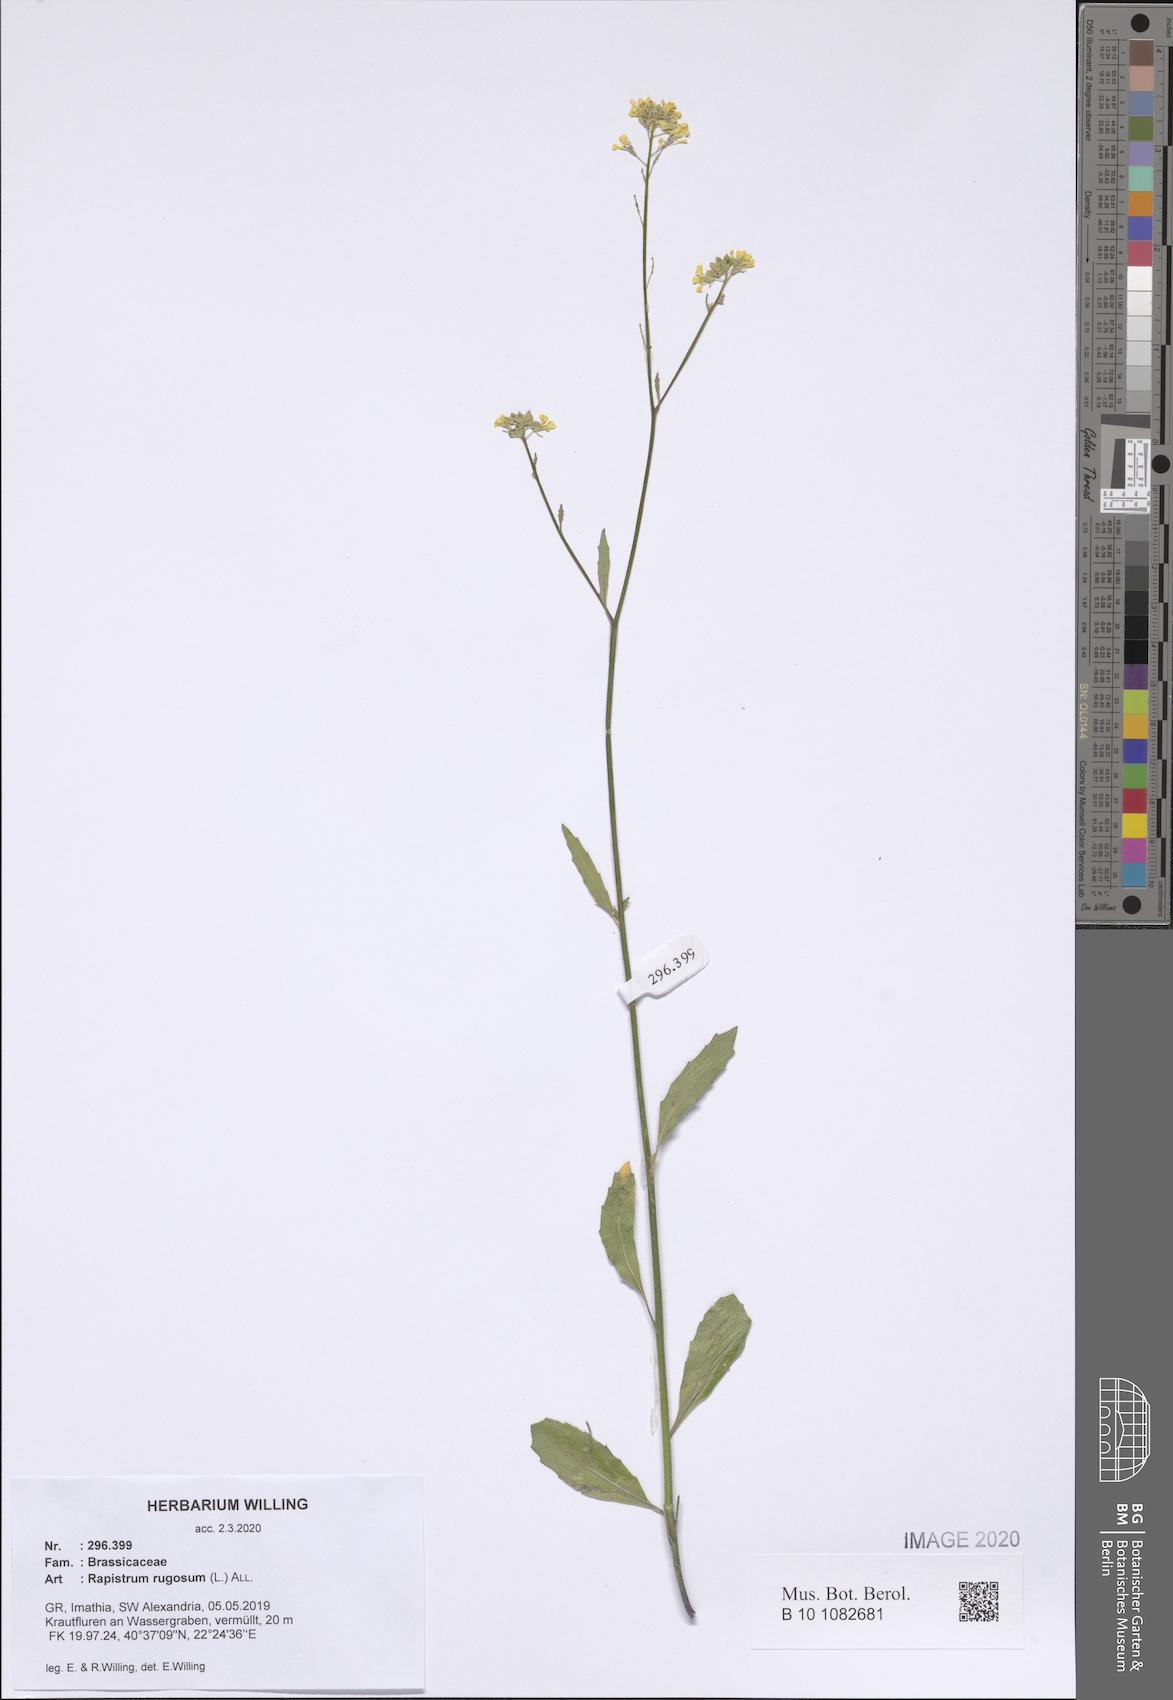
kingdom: Plantae
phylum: Tracheophyta
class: Magnoliopsida
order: Brassicales
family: Brassicaceae
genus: Rapistrum
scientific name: Rapistrum rugosum
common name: Annual bastardcabbage
